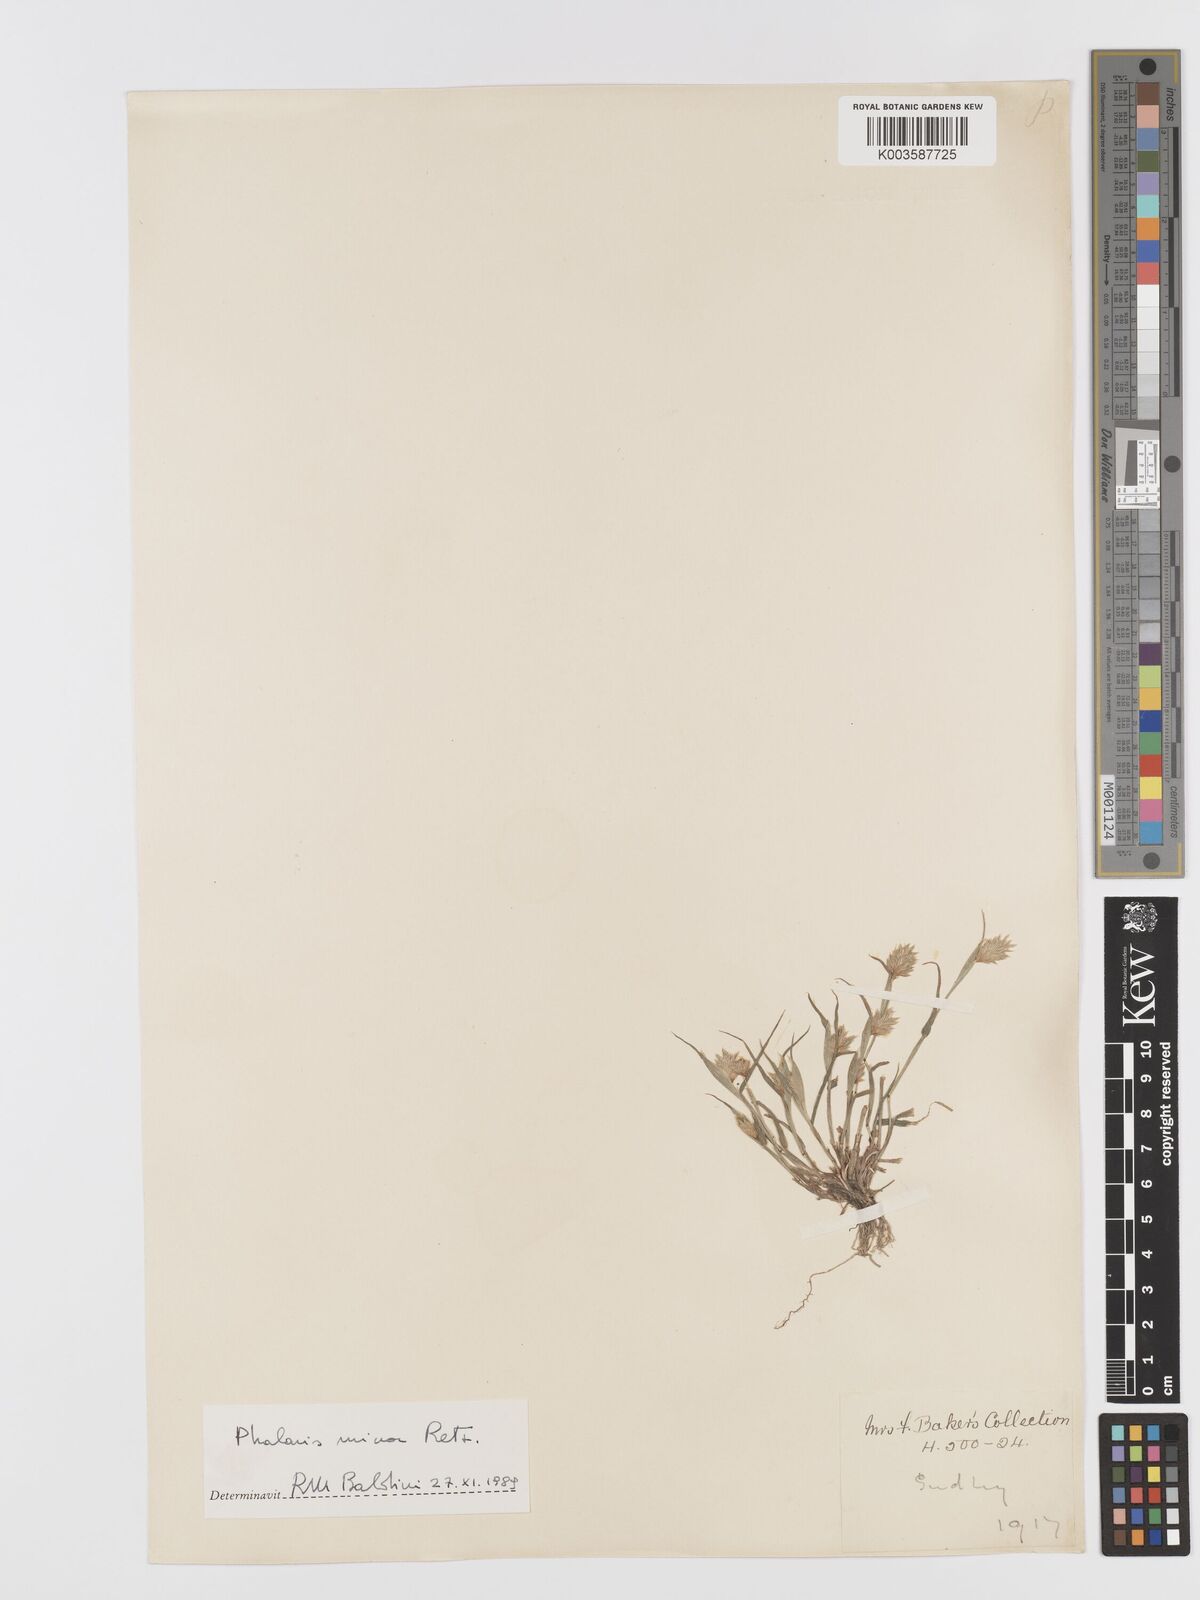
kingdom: Plantae
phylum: Tracheophyta
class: Liliopsida
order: Poales
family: Poaceae
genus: Phalaris
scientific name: Phalaris minor
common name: Littleseed canarygrass
